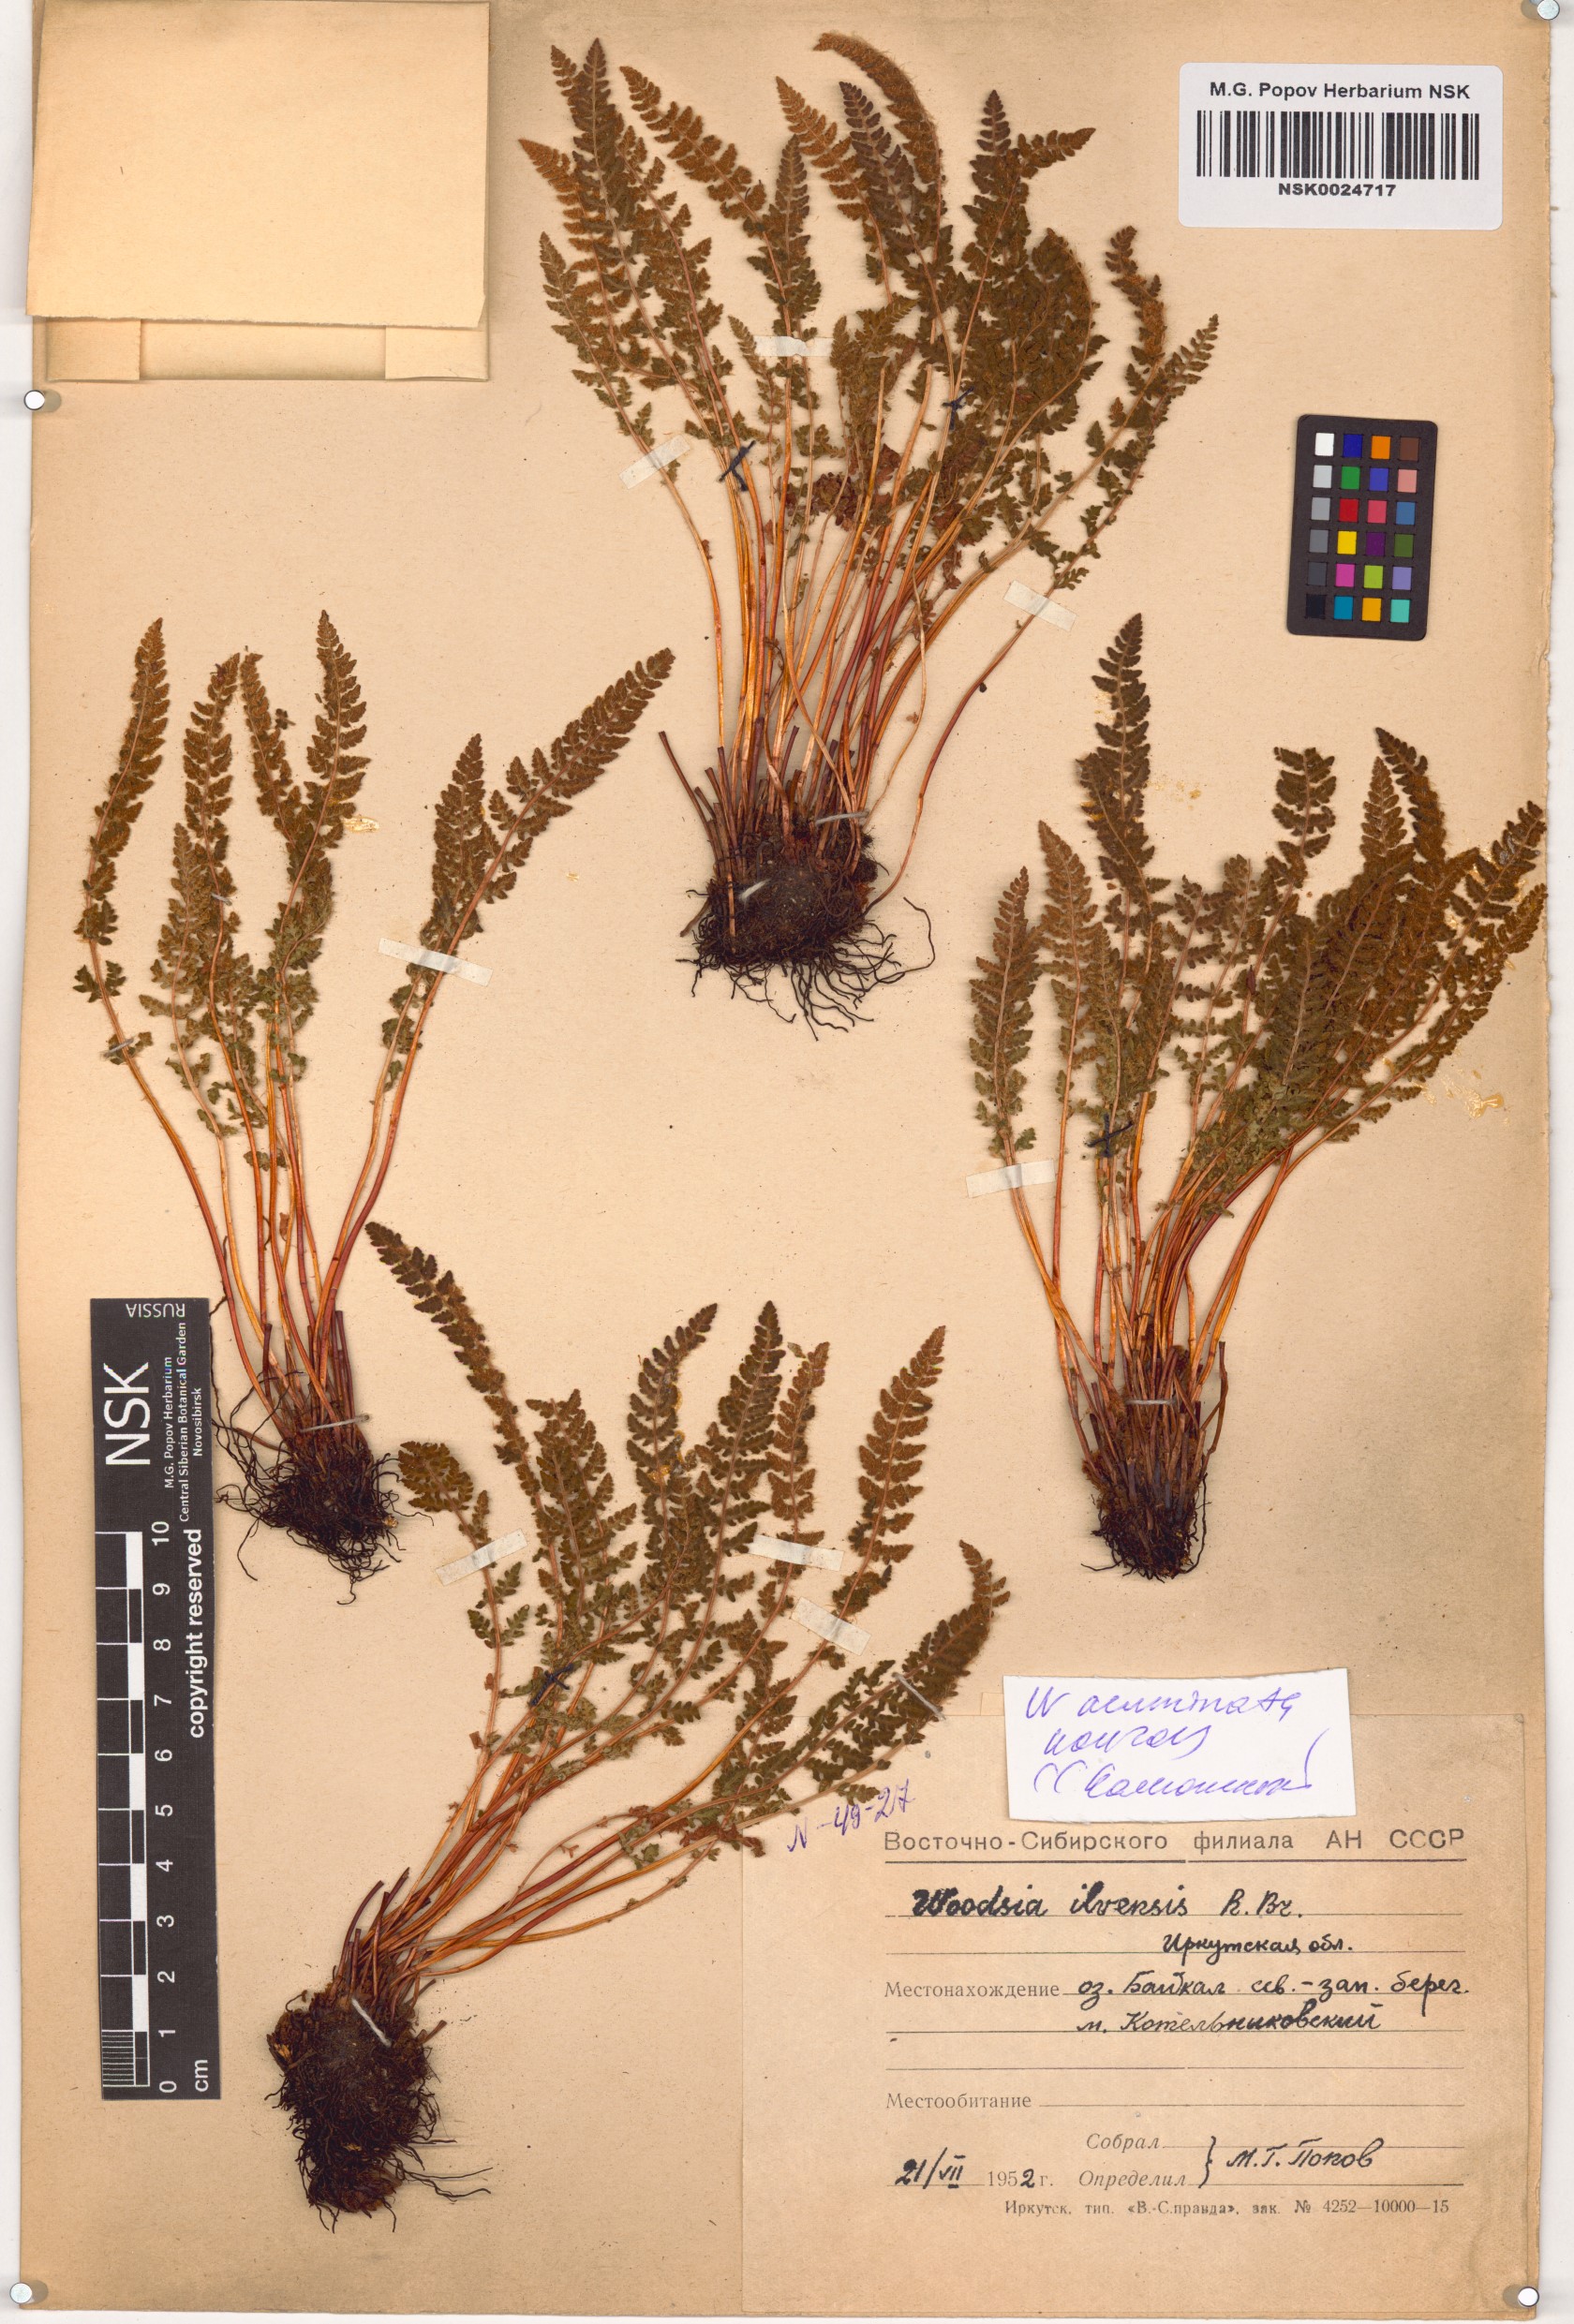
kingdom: Plantae
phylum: Tracheophyta
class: Polypodiopsida
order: Polypodiales
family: Woodsiaceae
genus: Woodsia
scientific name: Woodsia ilvensis
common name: Fragrant woodsia
